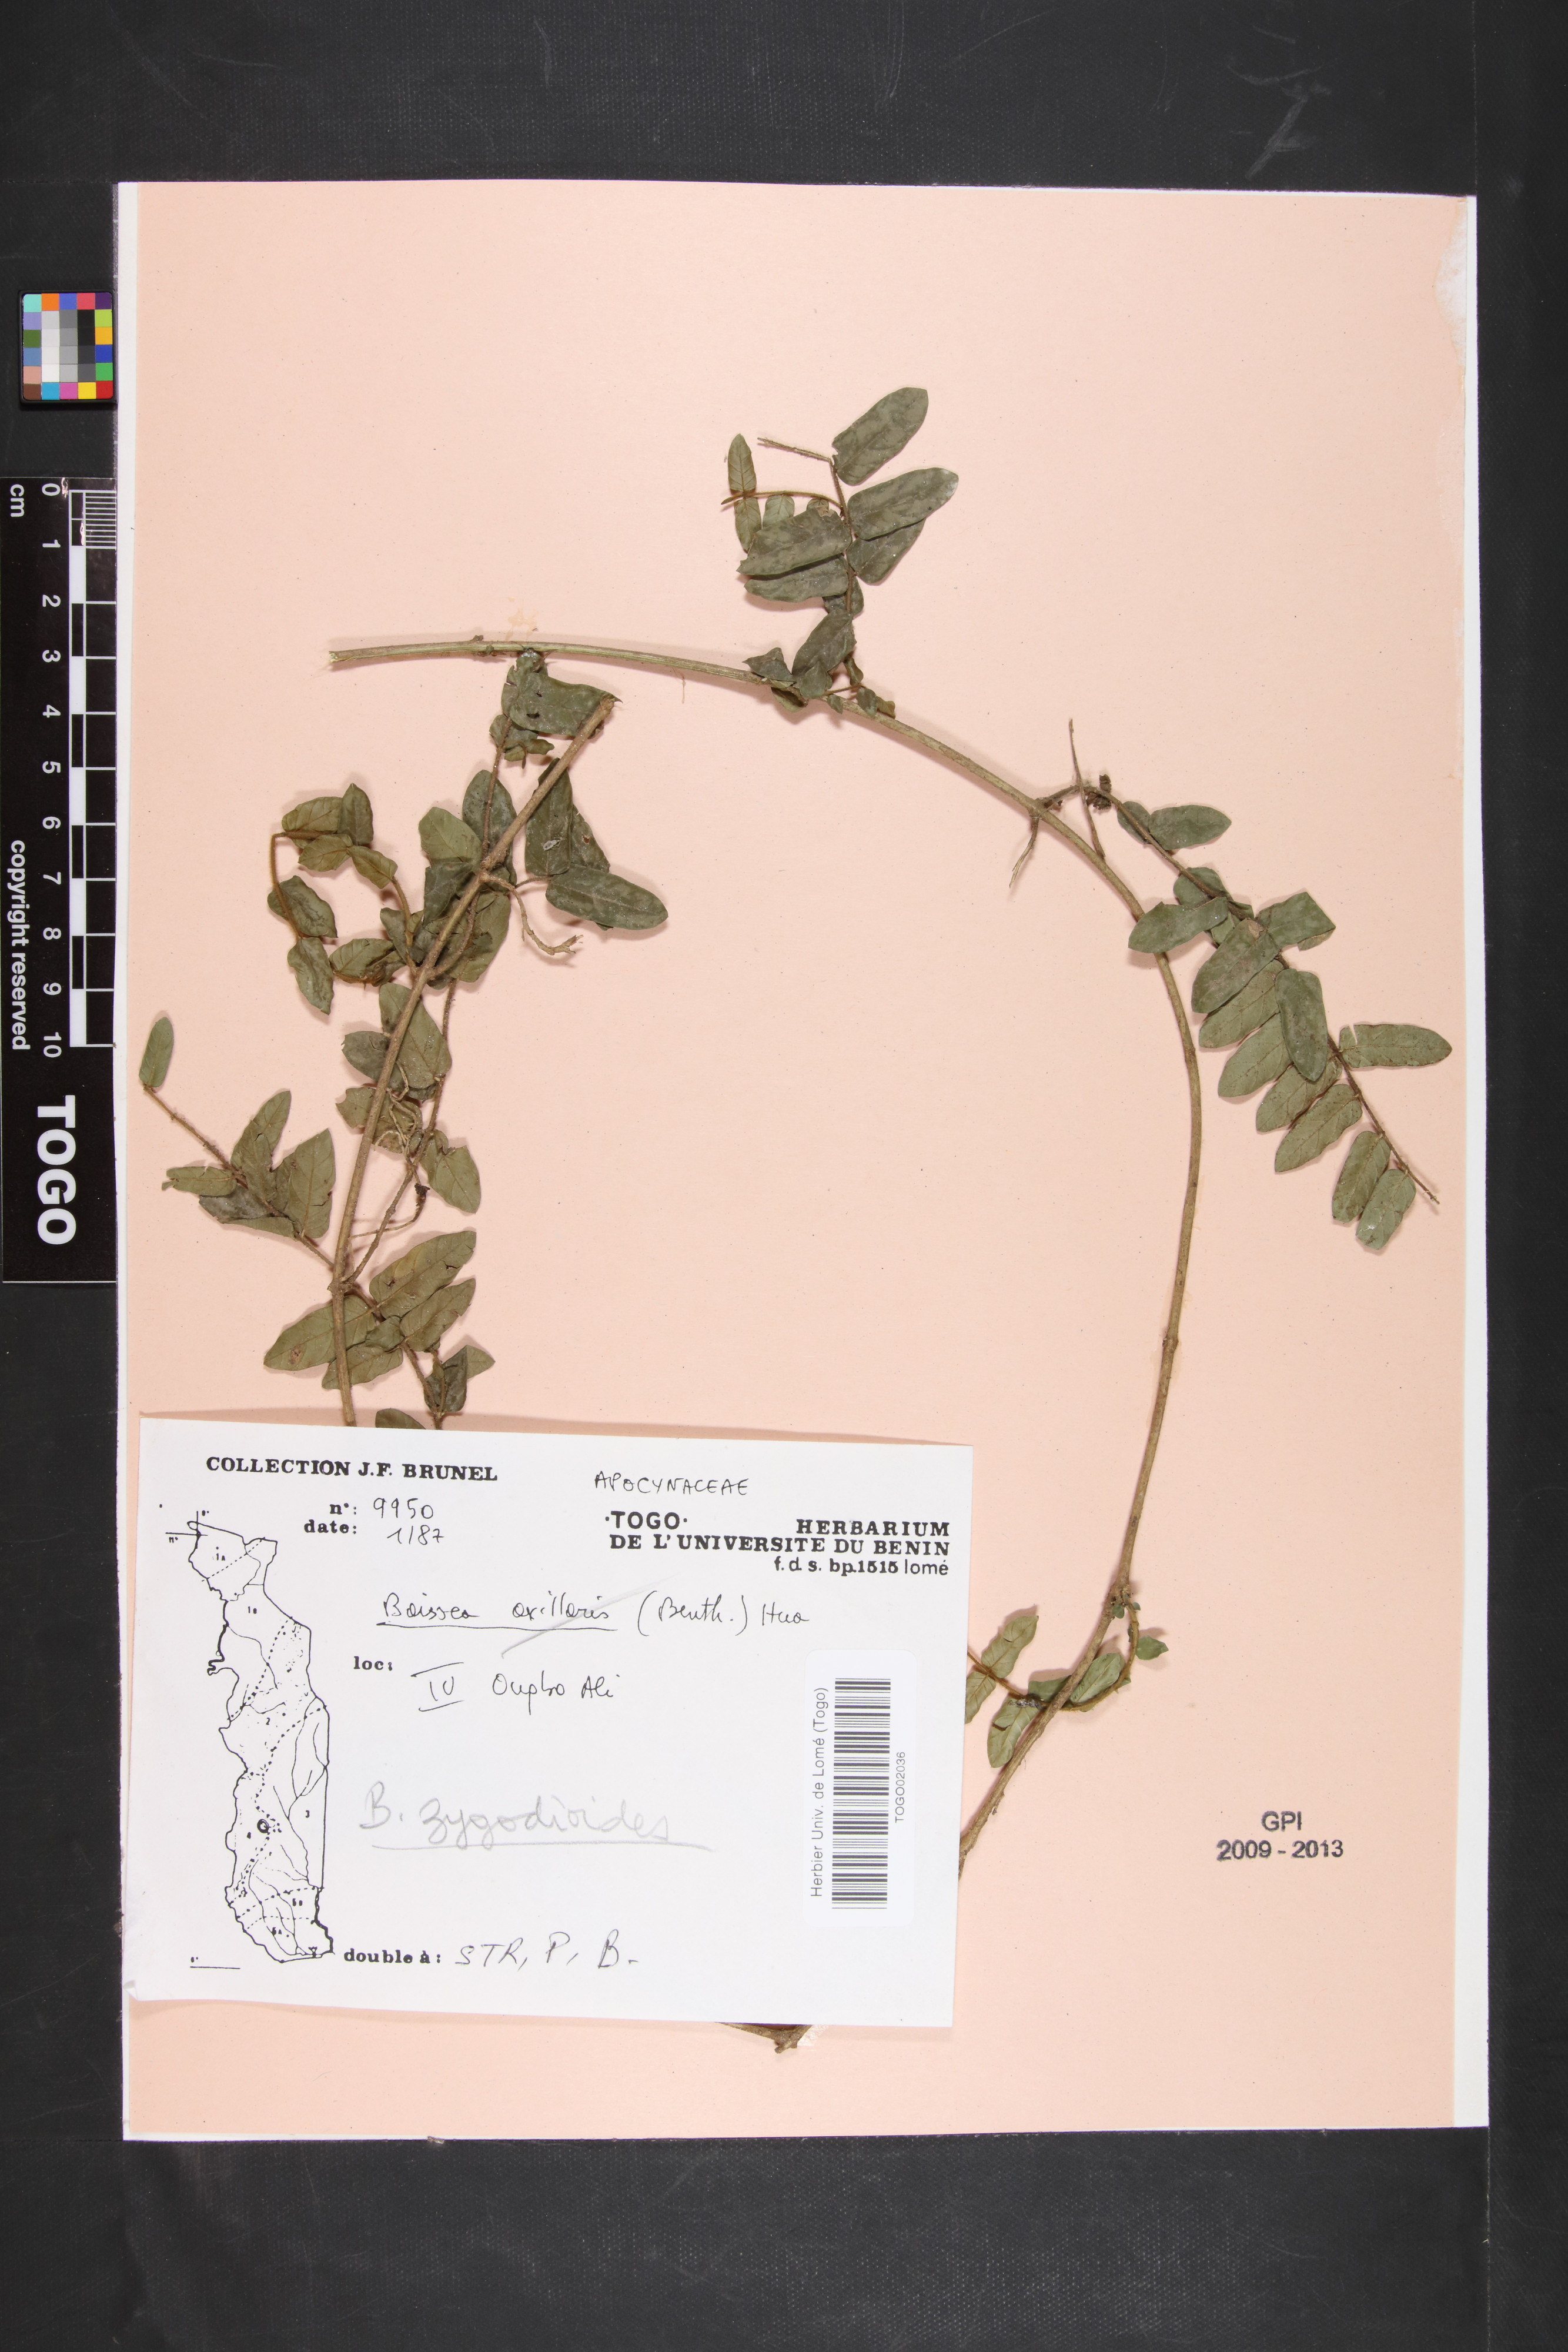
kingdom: Plantae
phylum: Tracheophyta
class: Magnoliopsida
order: Gentianales
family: Apocynaceae
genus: Baissea
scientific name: Baissea zygodioides
